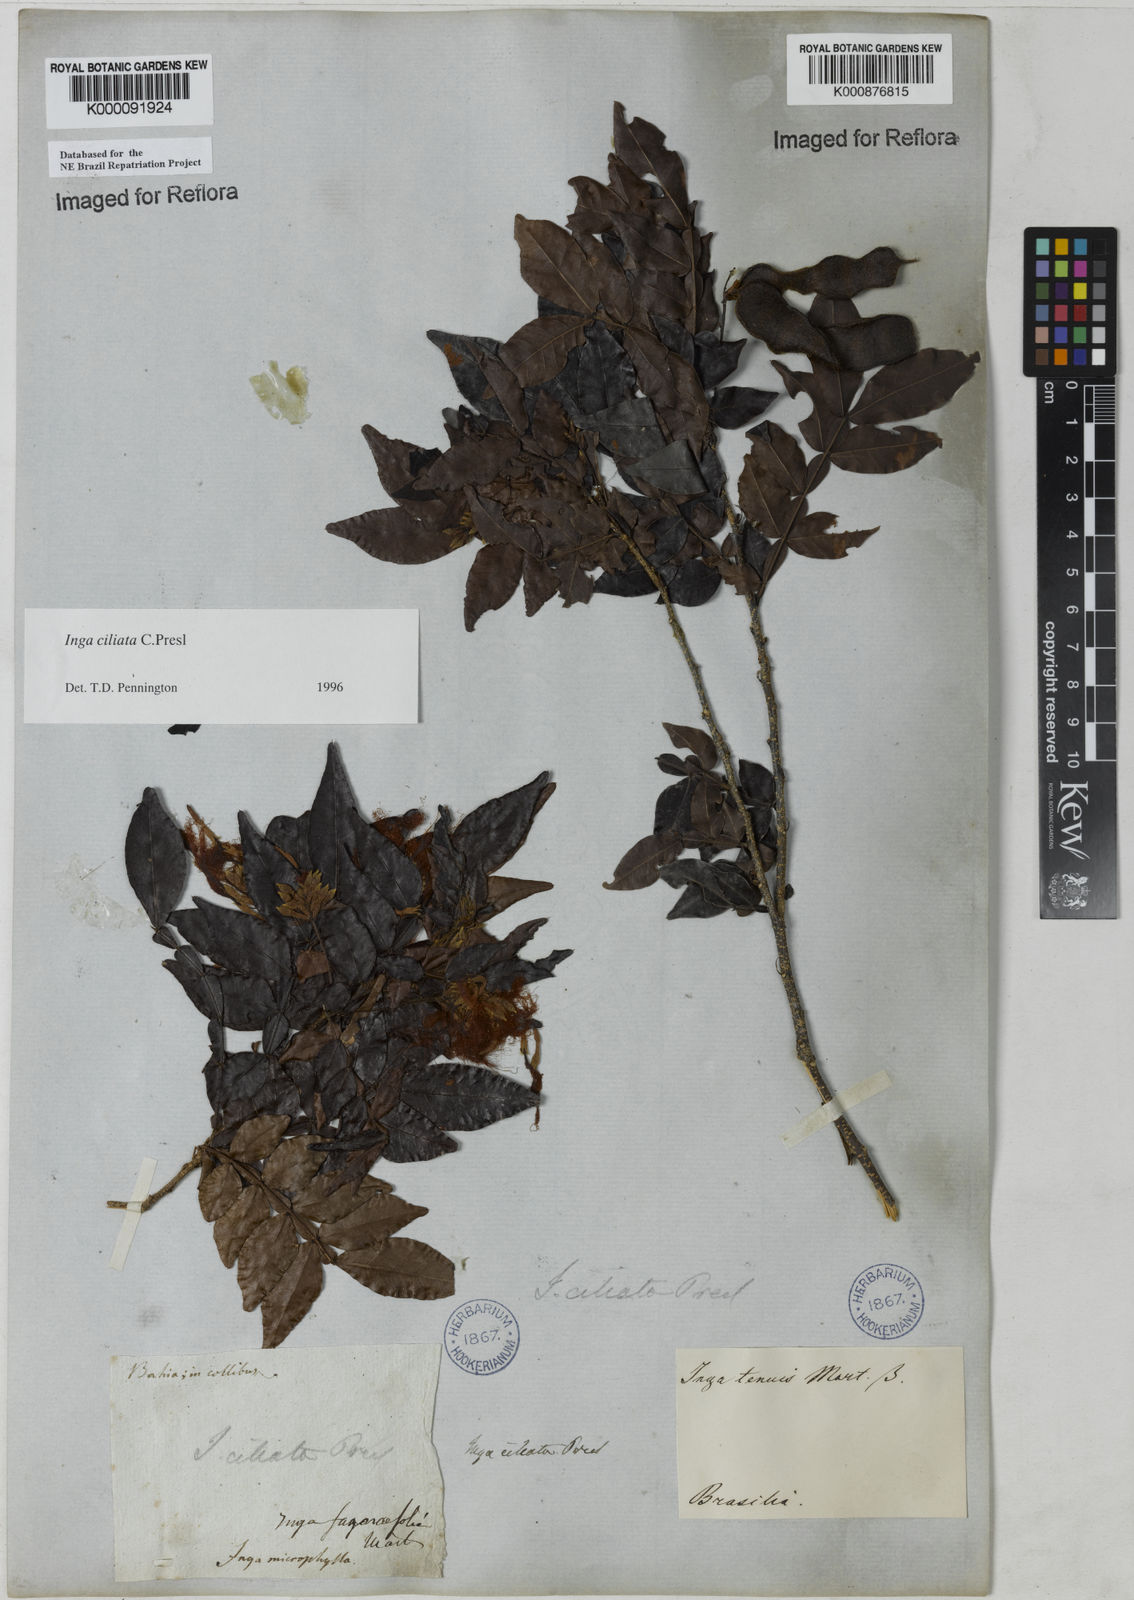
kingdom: Plantae
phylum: Tracheophyta
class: Magnoliopsida
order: Fabales
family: Fabaceae
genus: Inga
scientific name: Inga ciliata
